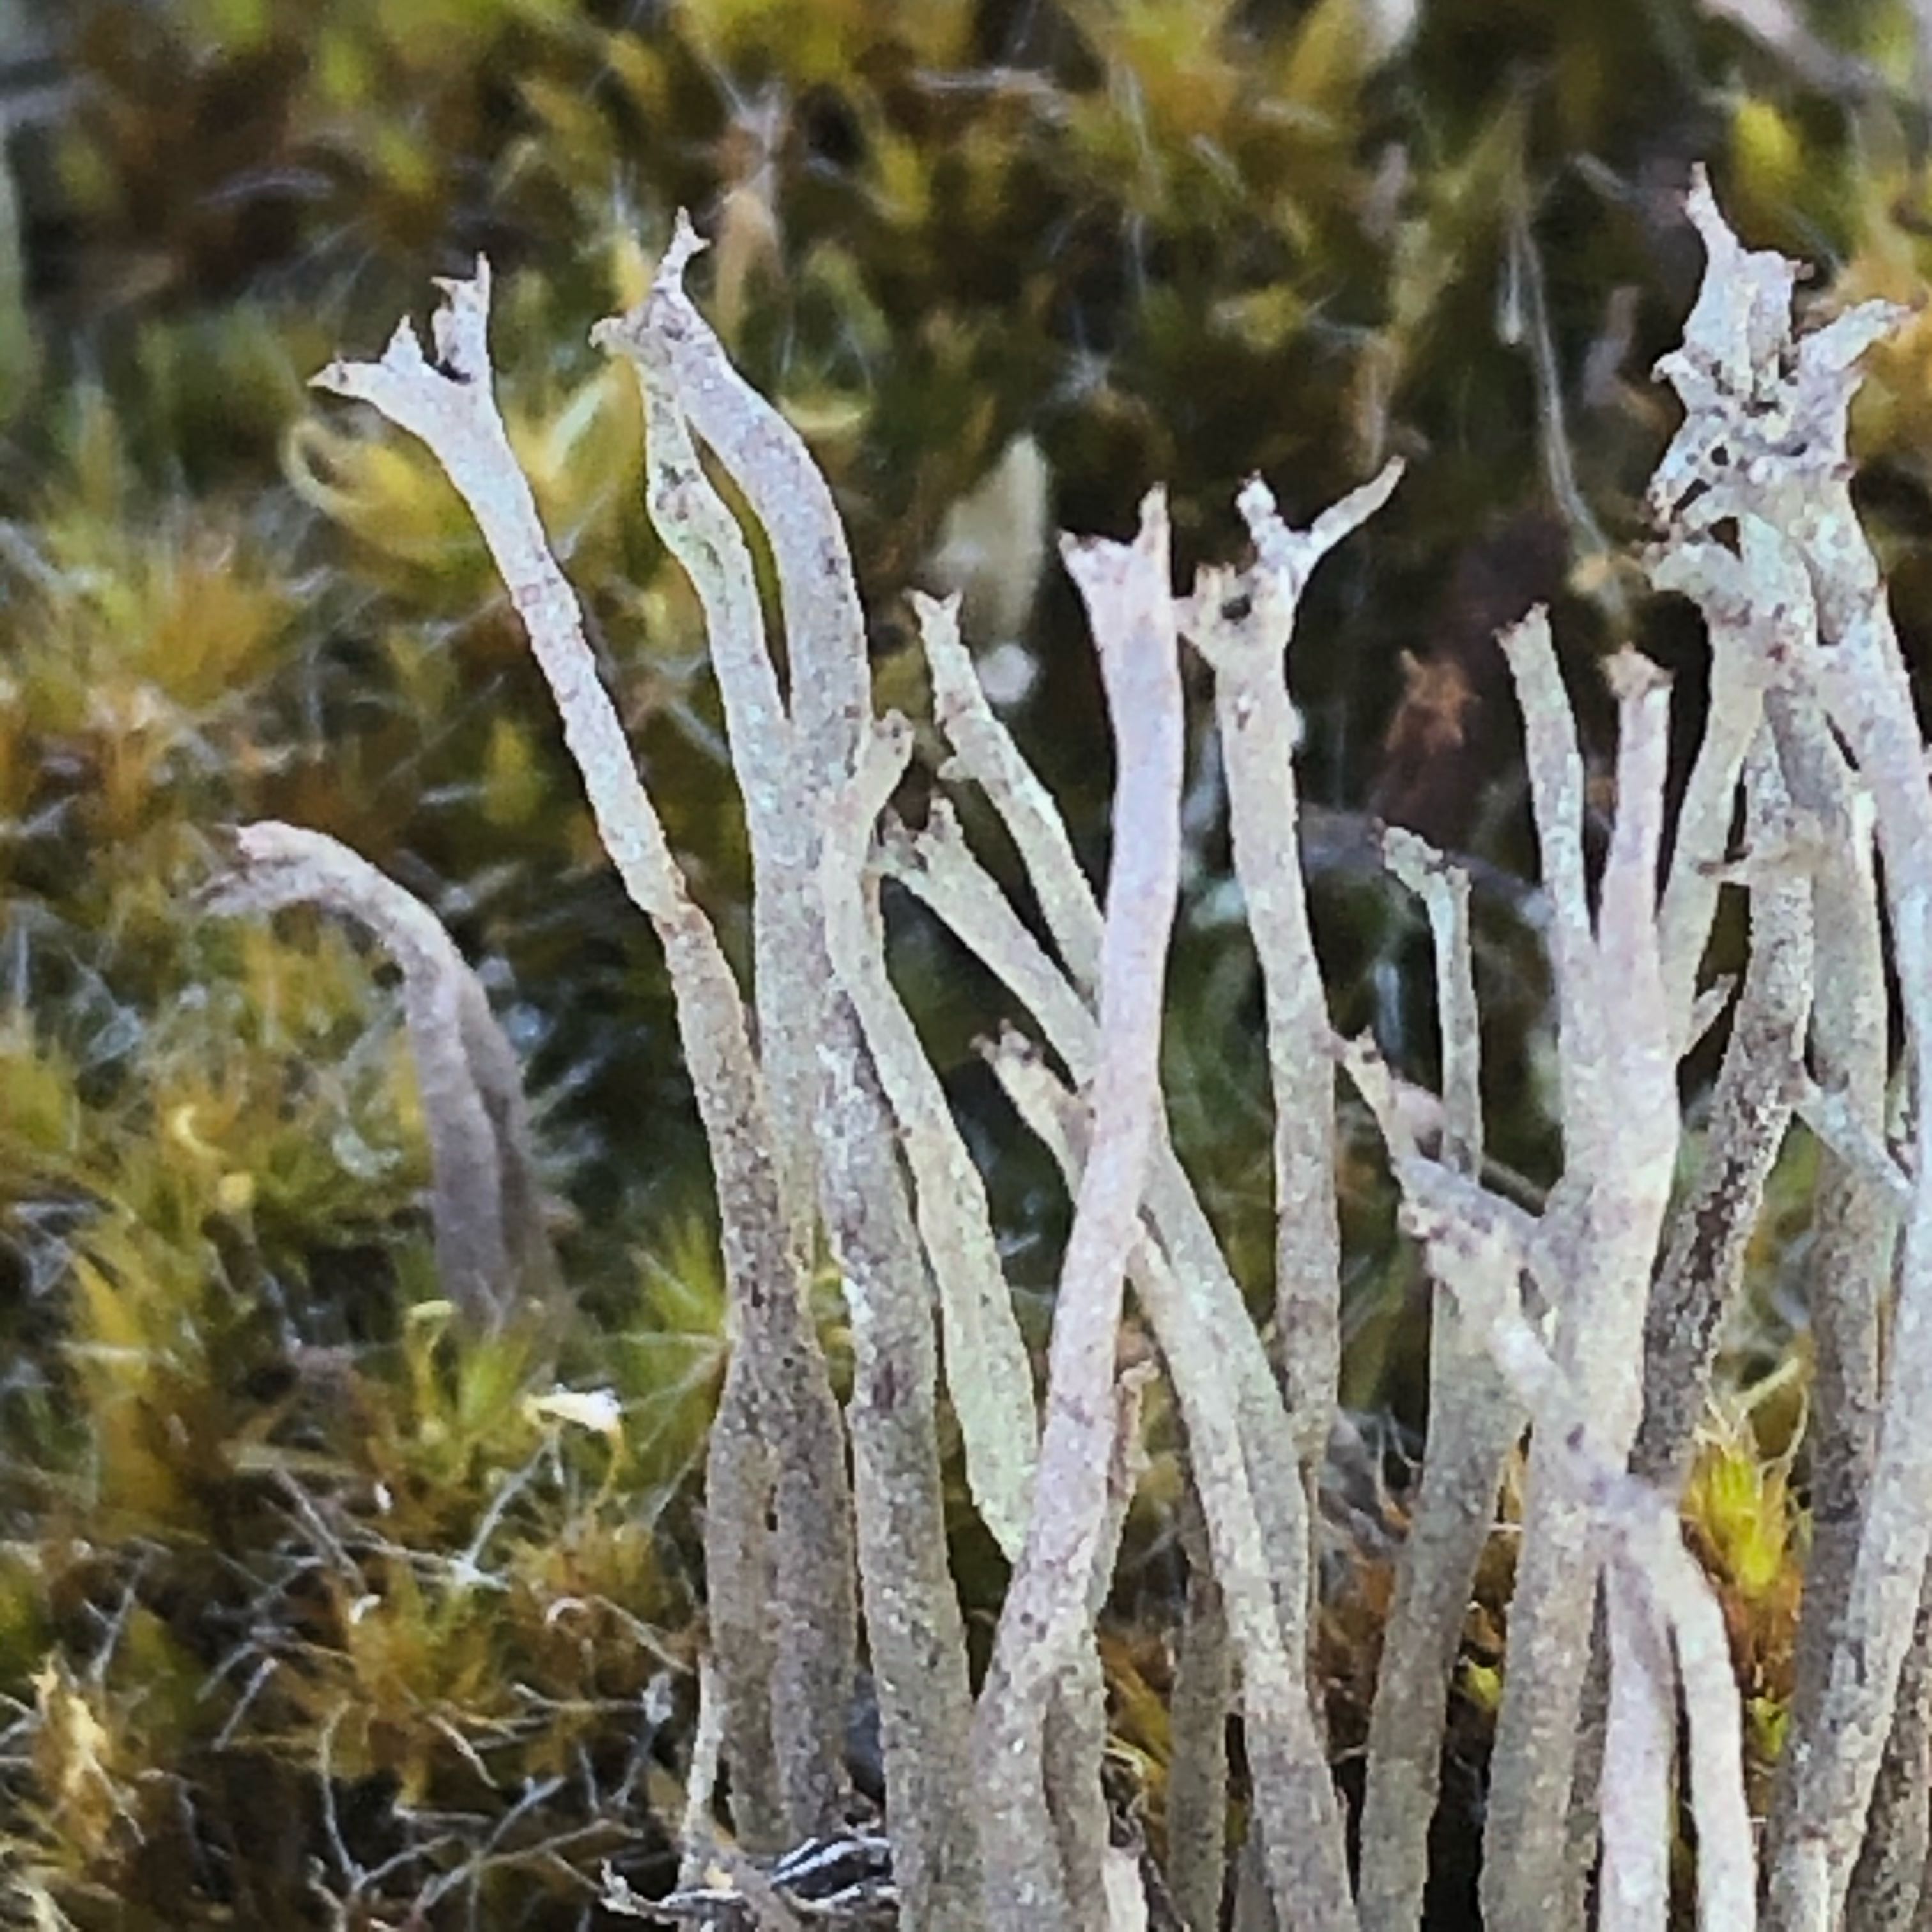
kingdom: Fungi
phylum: Ascomycota
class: Lecanoromycetes
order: Lecanorales
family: Cladoniaceae
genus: Cladonia
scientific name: Cladonia subulata
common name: spids bægerlav
